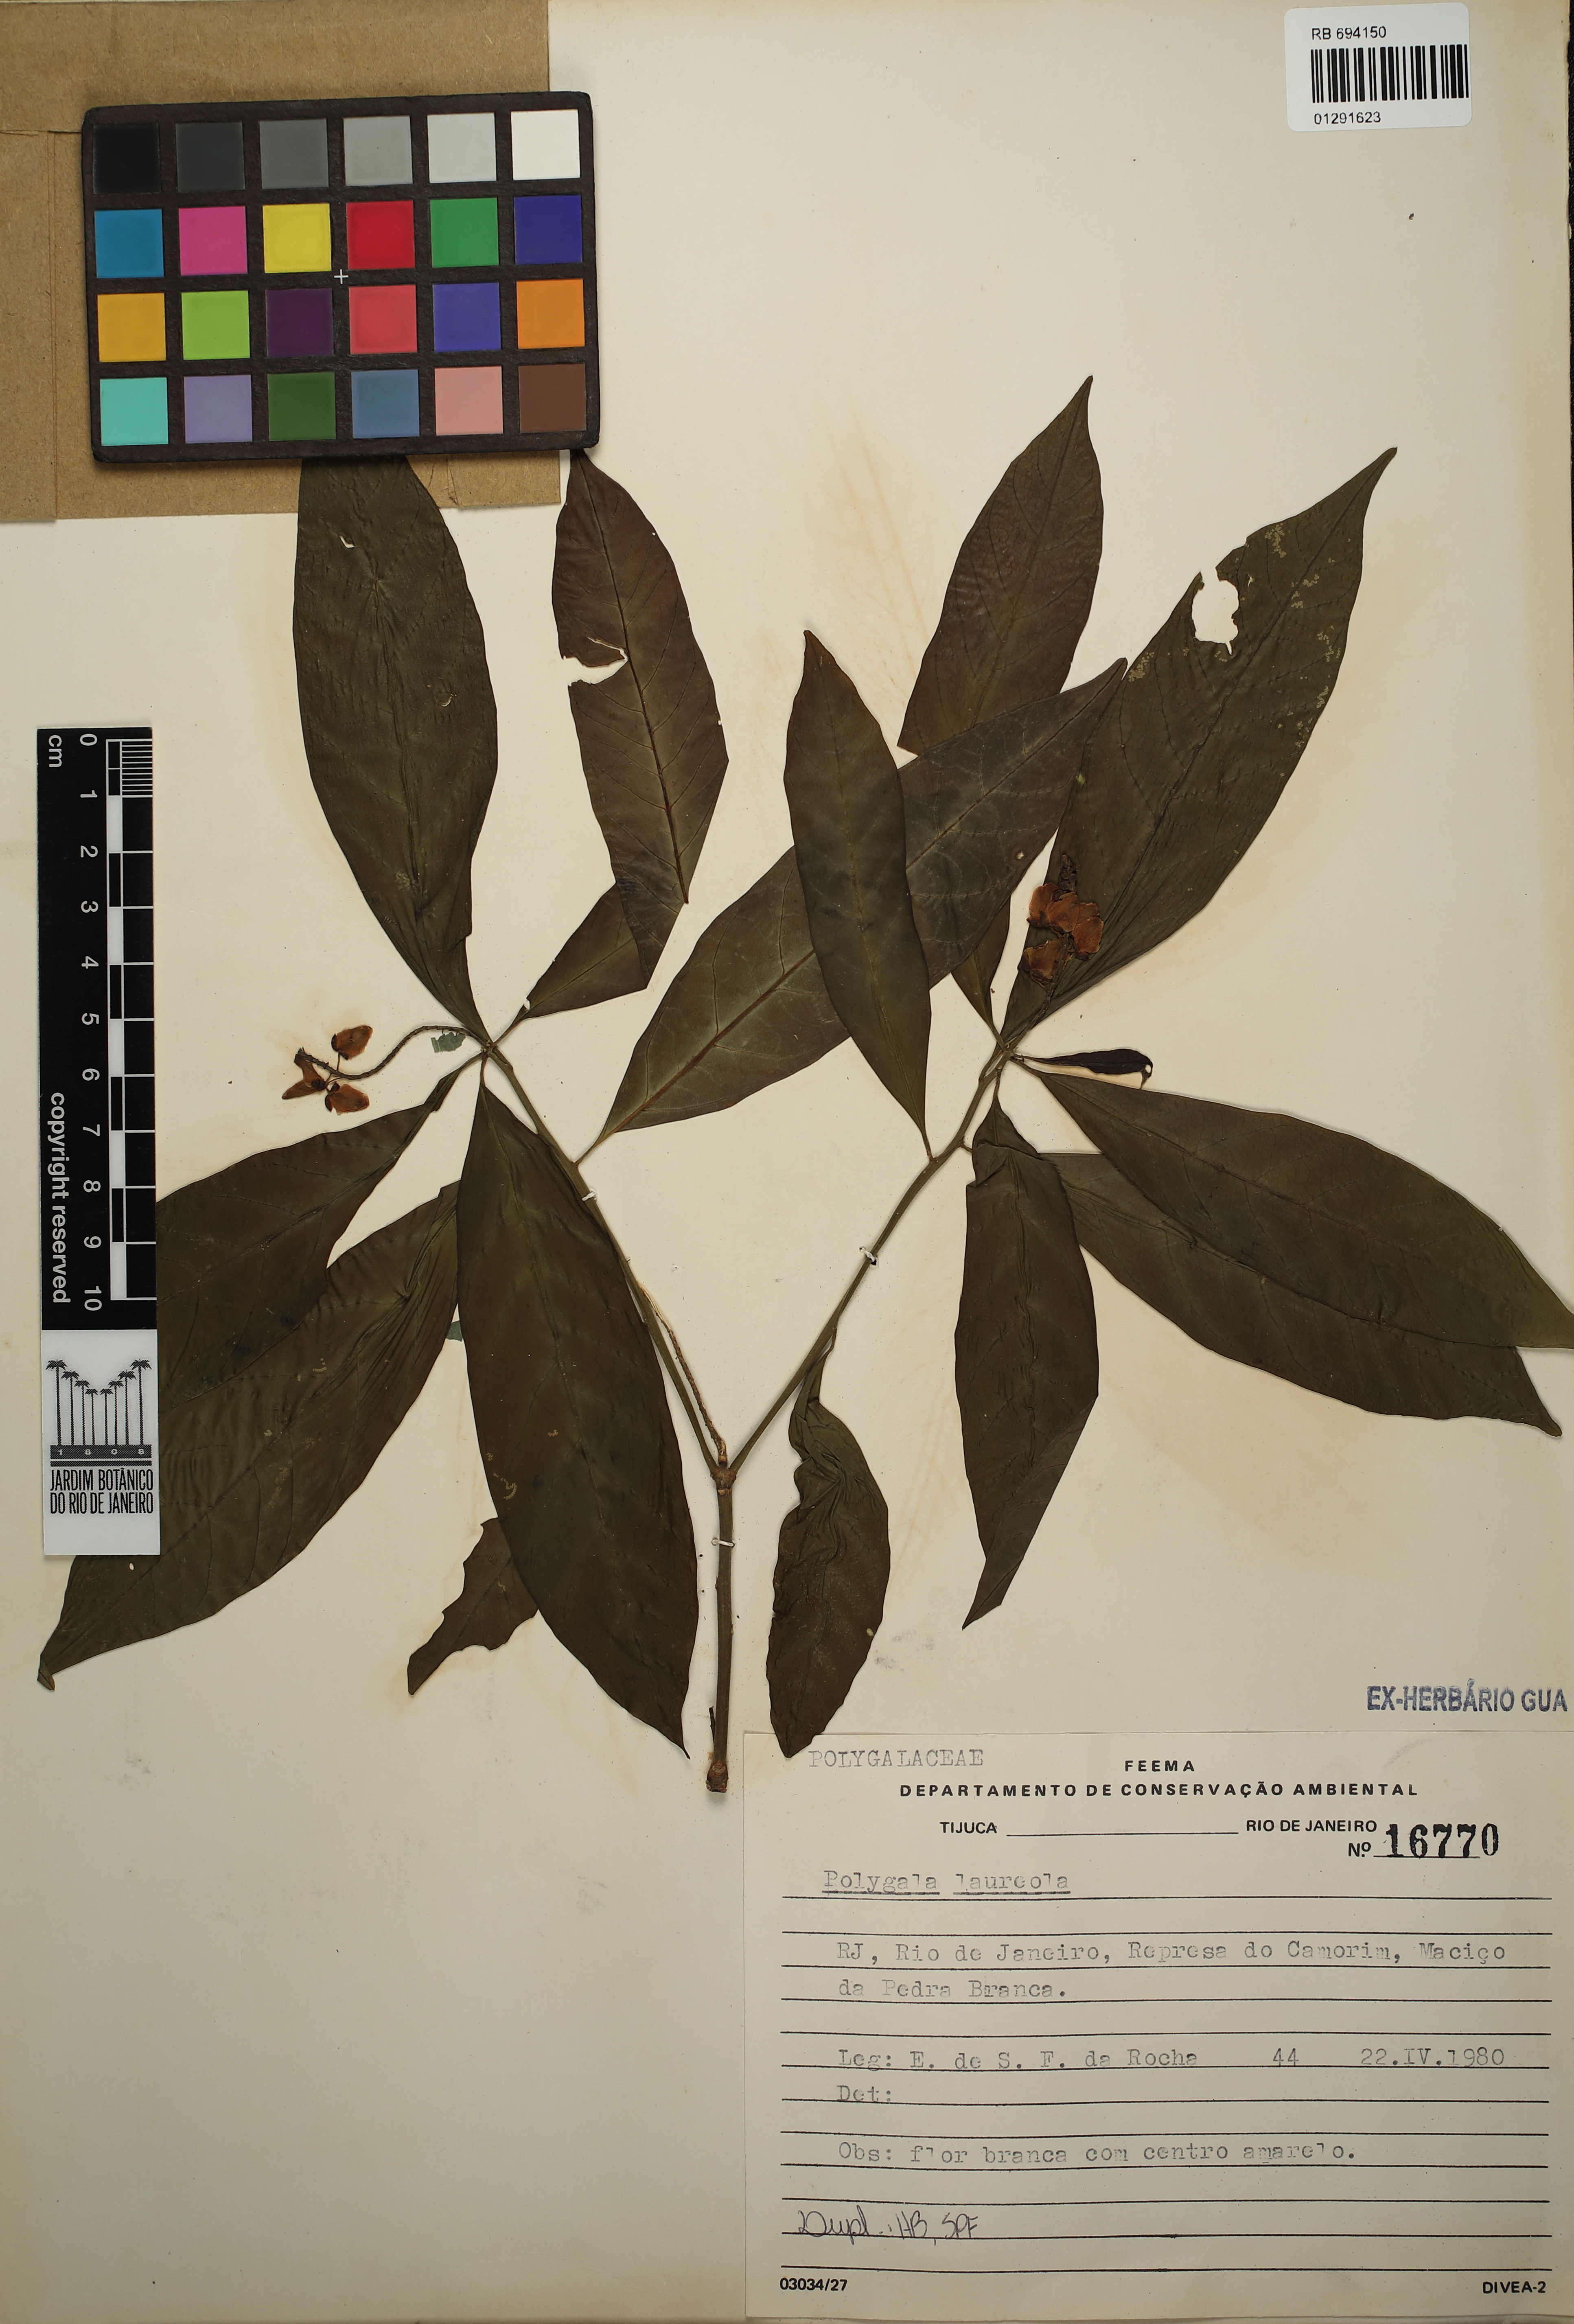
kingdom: Plantae
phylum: Tracheophyta
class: Magnoliopsida
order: Fabales
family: Polygalaceae
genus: Caamembeca
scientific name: Caamembeca salicifolia
